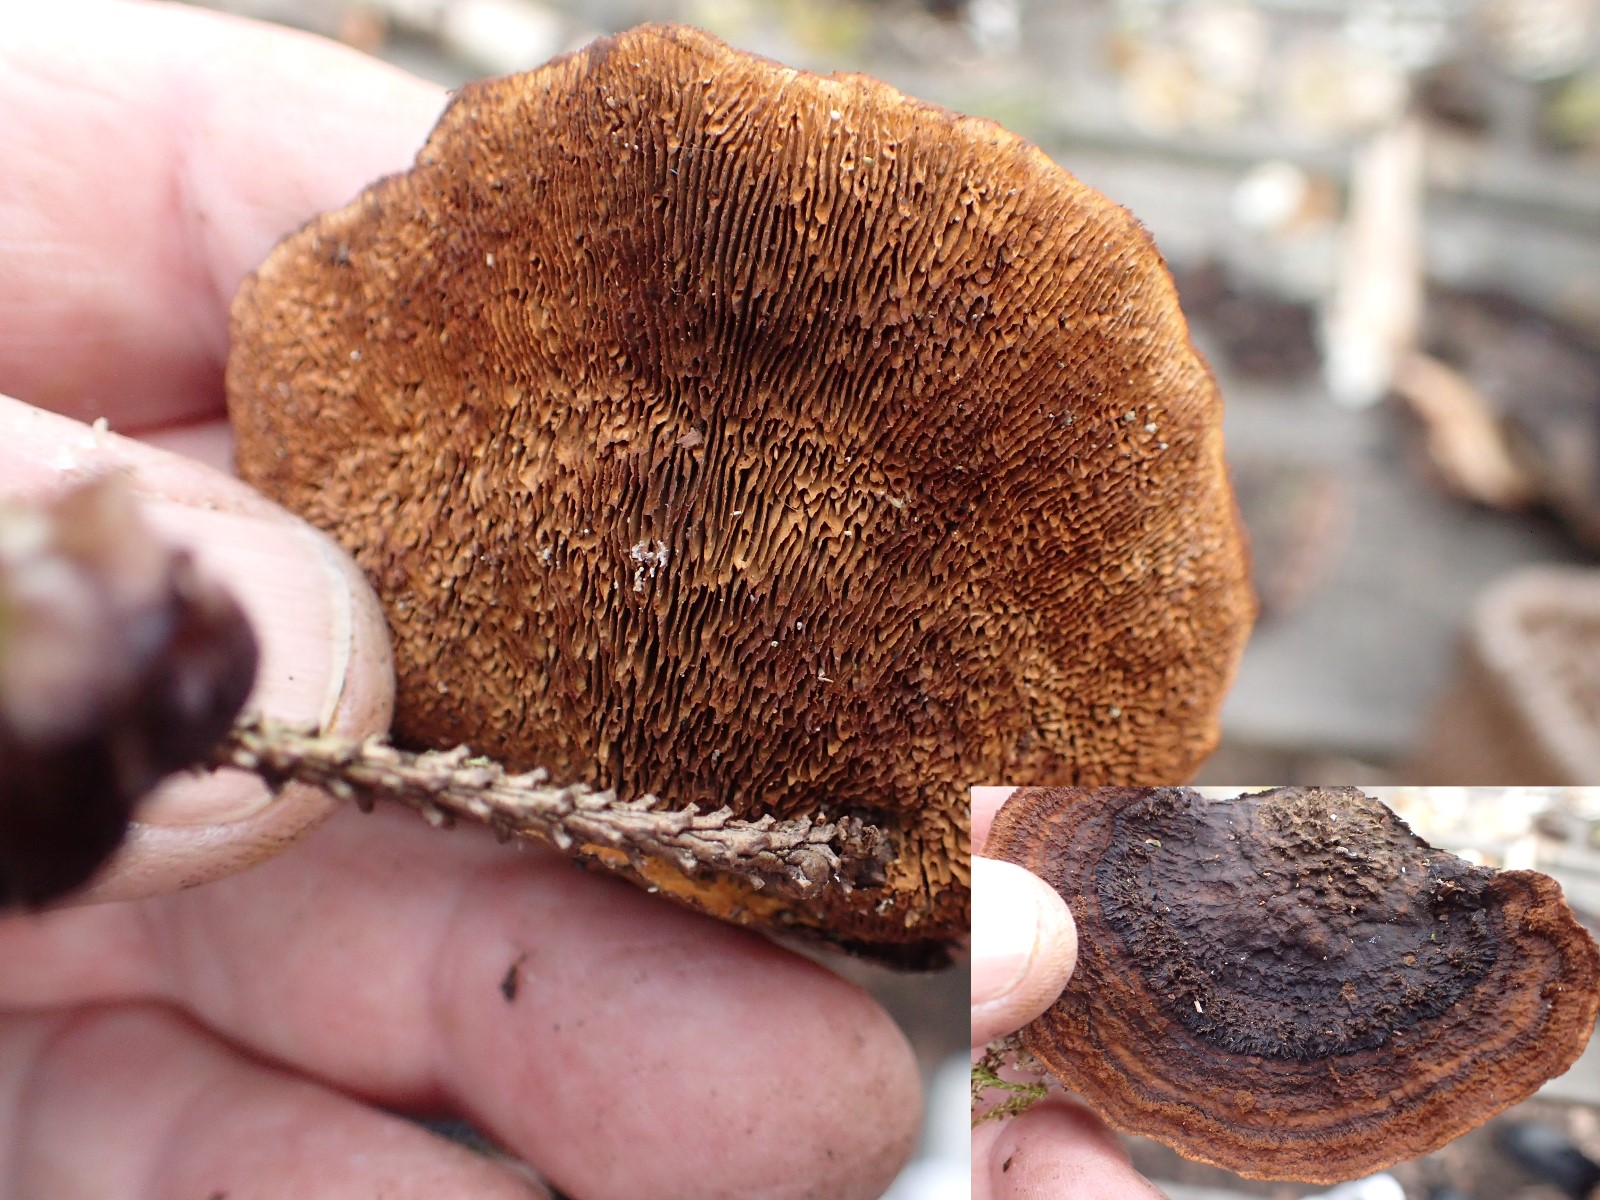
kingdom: Fungi
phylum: Basidiomycota
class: Agaricomycetes
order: Gloeophyllales
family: Gloeophyllaceae
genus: Gloeophyllum
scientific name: Gloeophyllum sepiarium
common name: fyrre-korkhat
